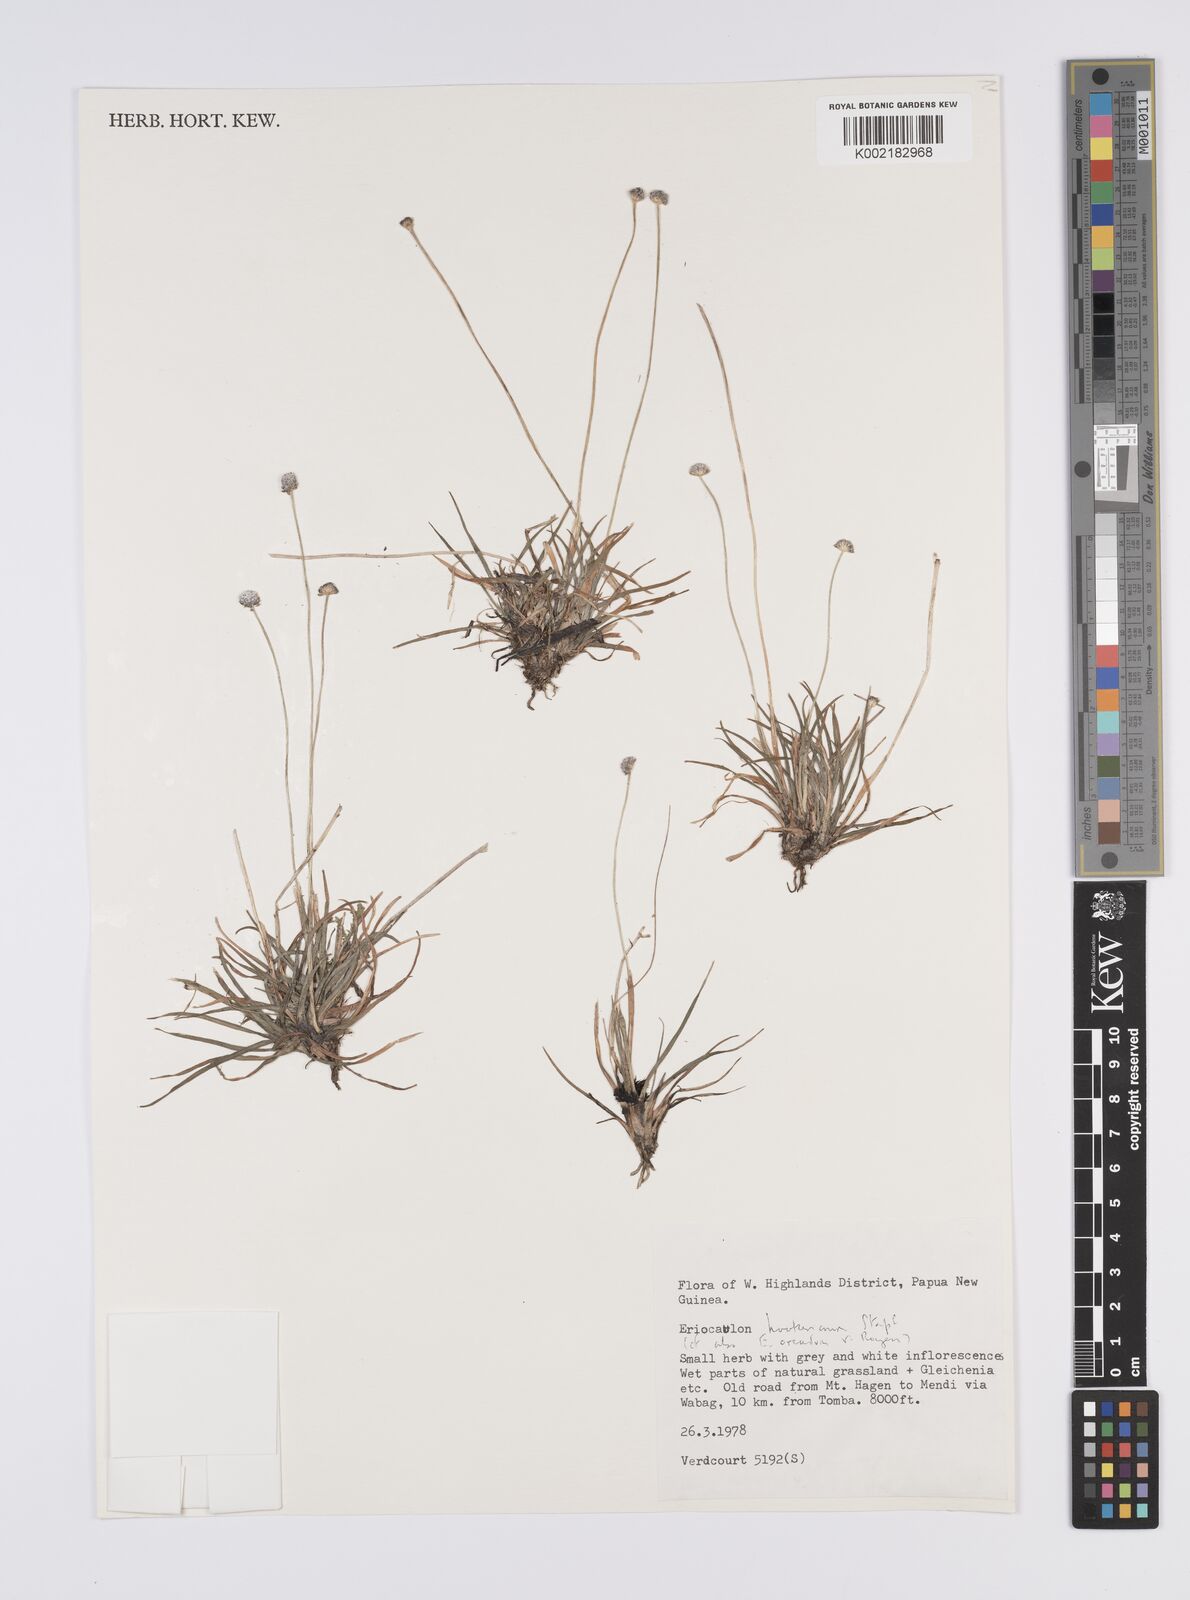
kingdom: Plantae
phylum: Tracheophyta
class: Liliopsida
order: Poales
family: Eriocaulaceae
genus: Eriocaulon
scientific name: Eriocaulon hookerianum
